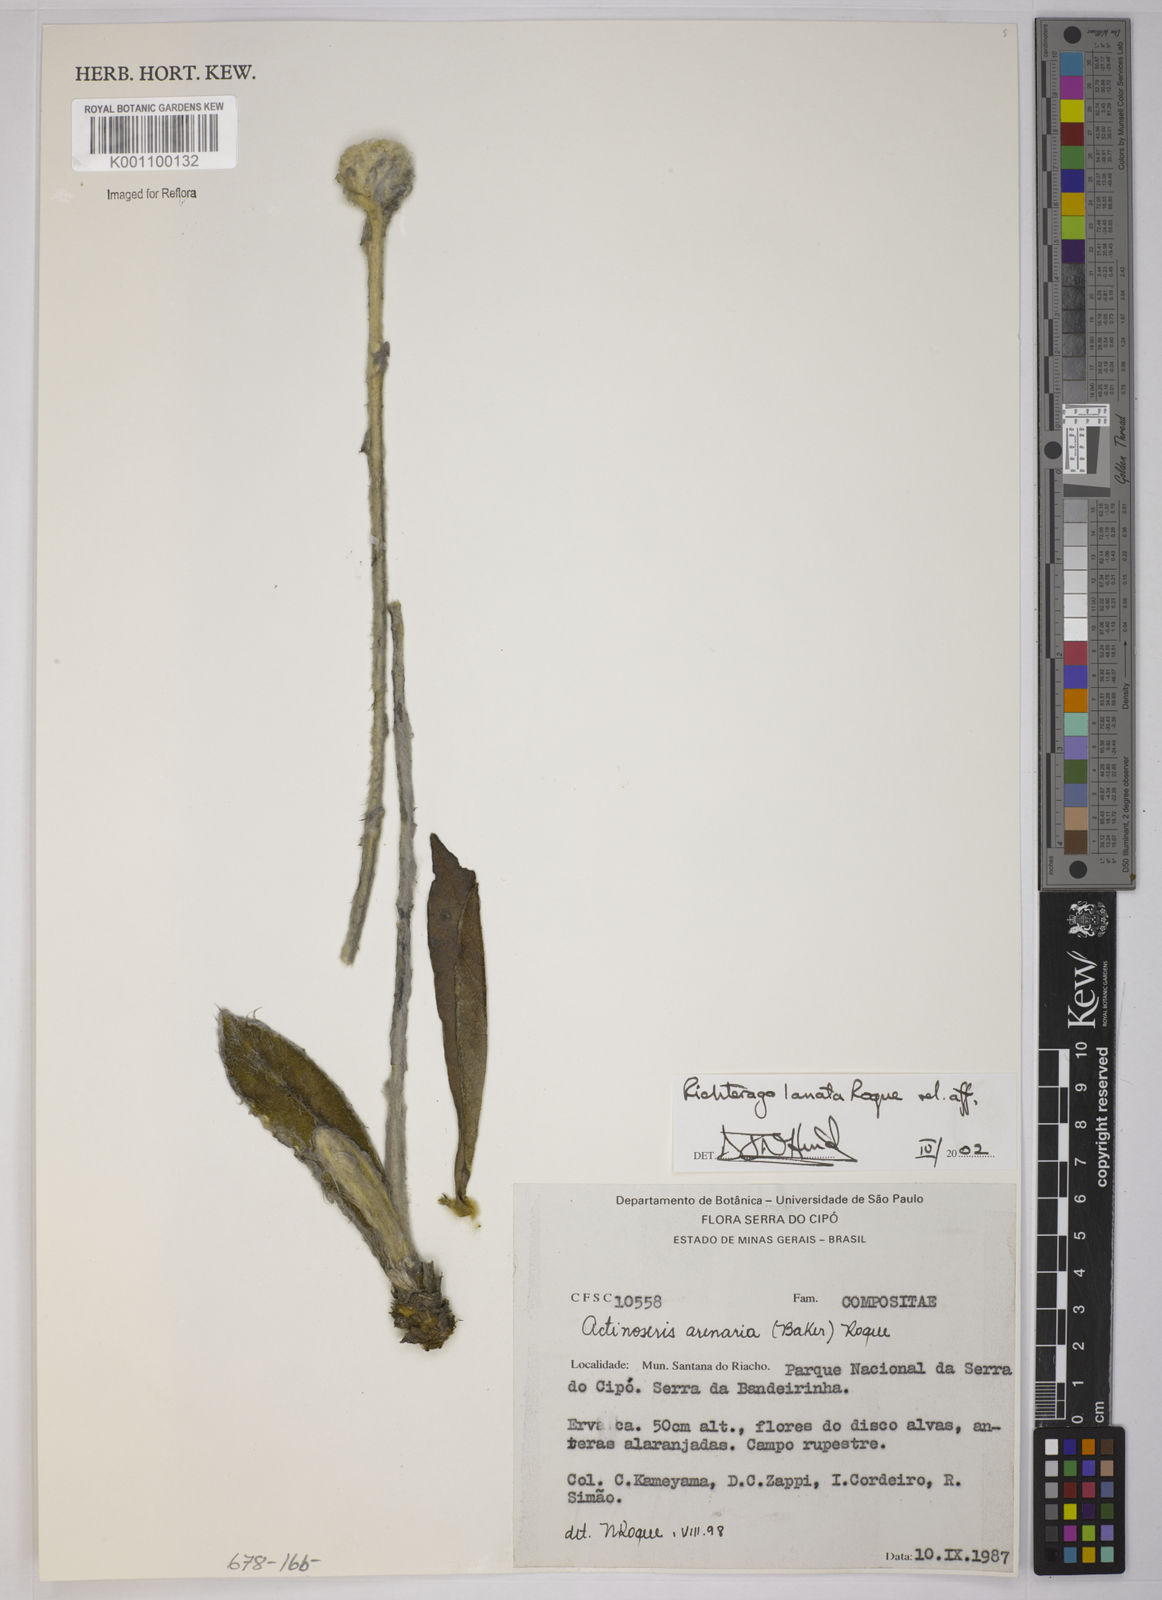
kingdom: Plantae
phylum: Tracheophyta
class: Magnoliopsida
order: Asterales
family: Asteraceae
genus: Richterago
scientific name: Richterago lanata
